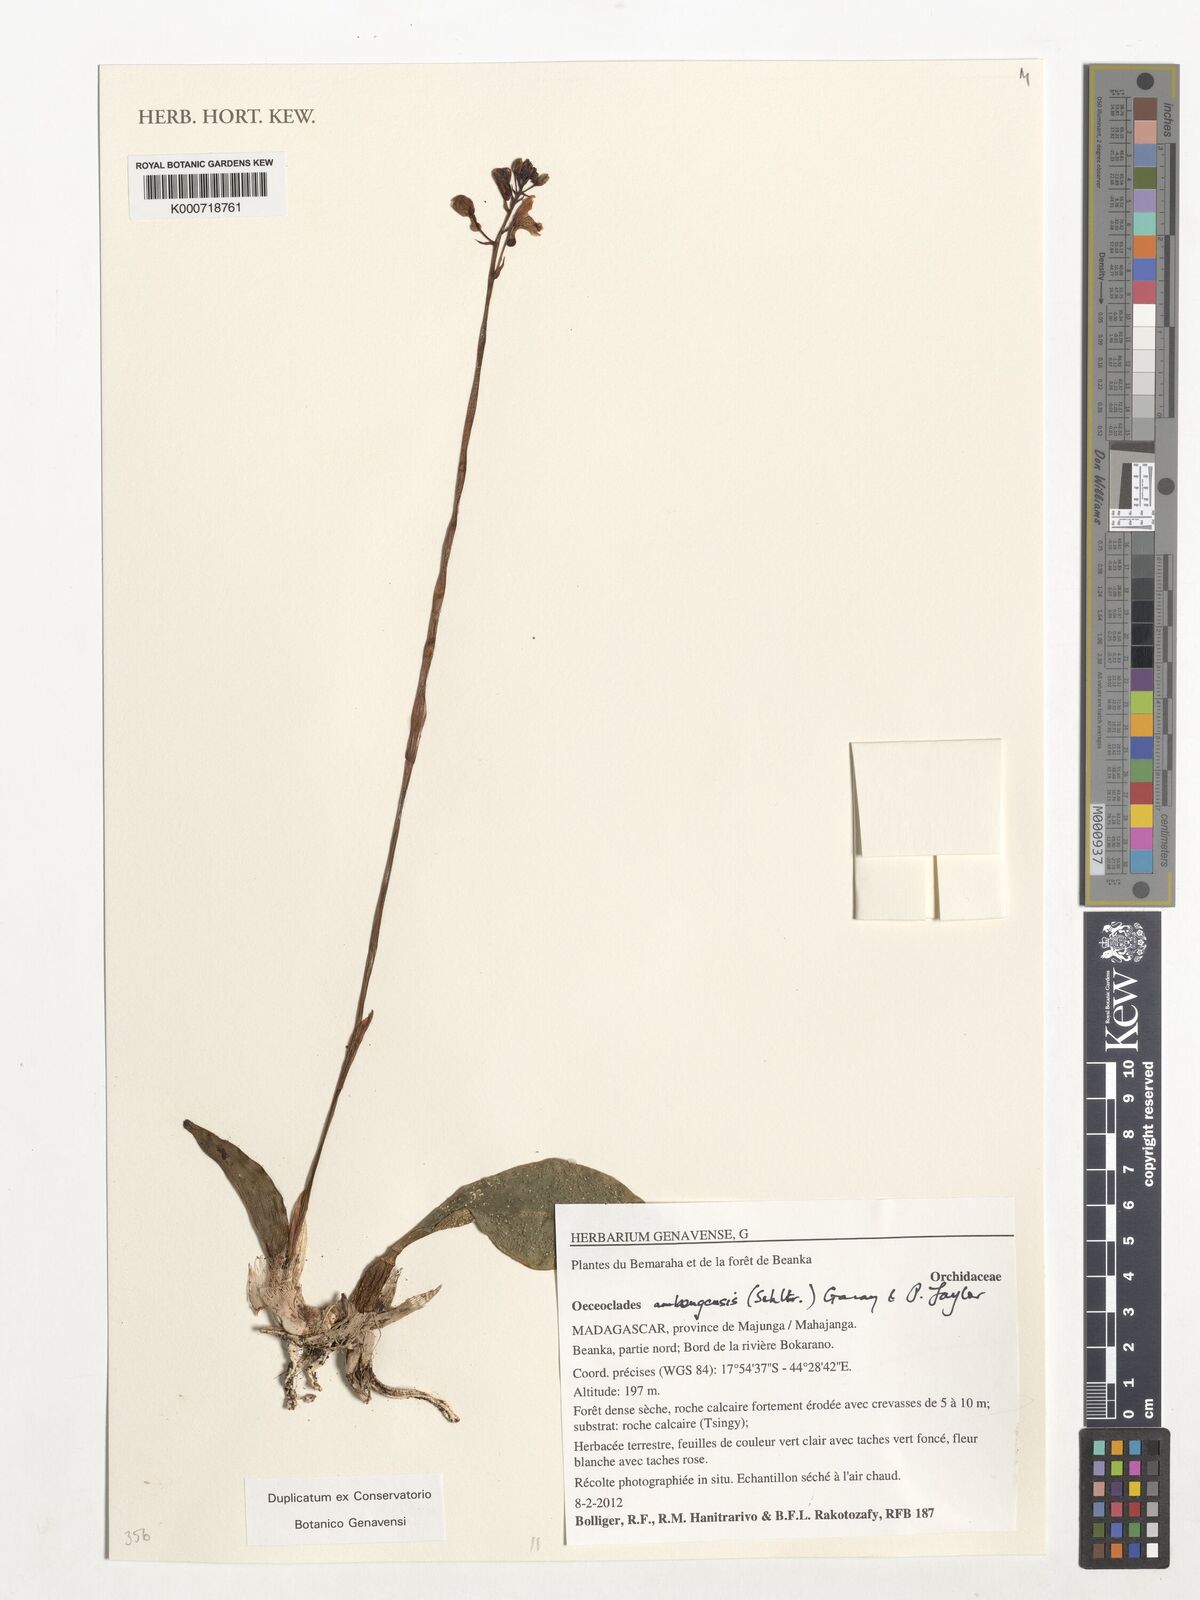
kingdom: Plantae
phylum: Tracheophyta
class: Liliopsida
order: Asparagales
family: Orchidaceae
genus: Eulophia
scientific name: Eulophia schlechteri
